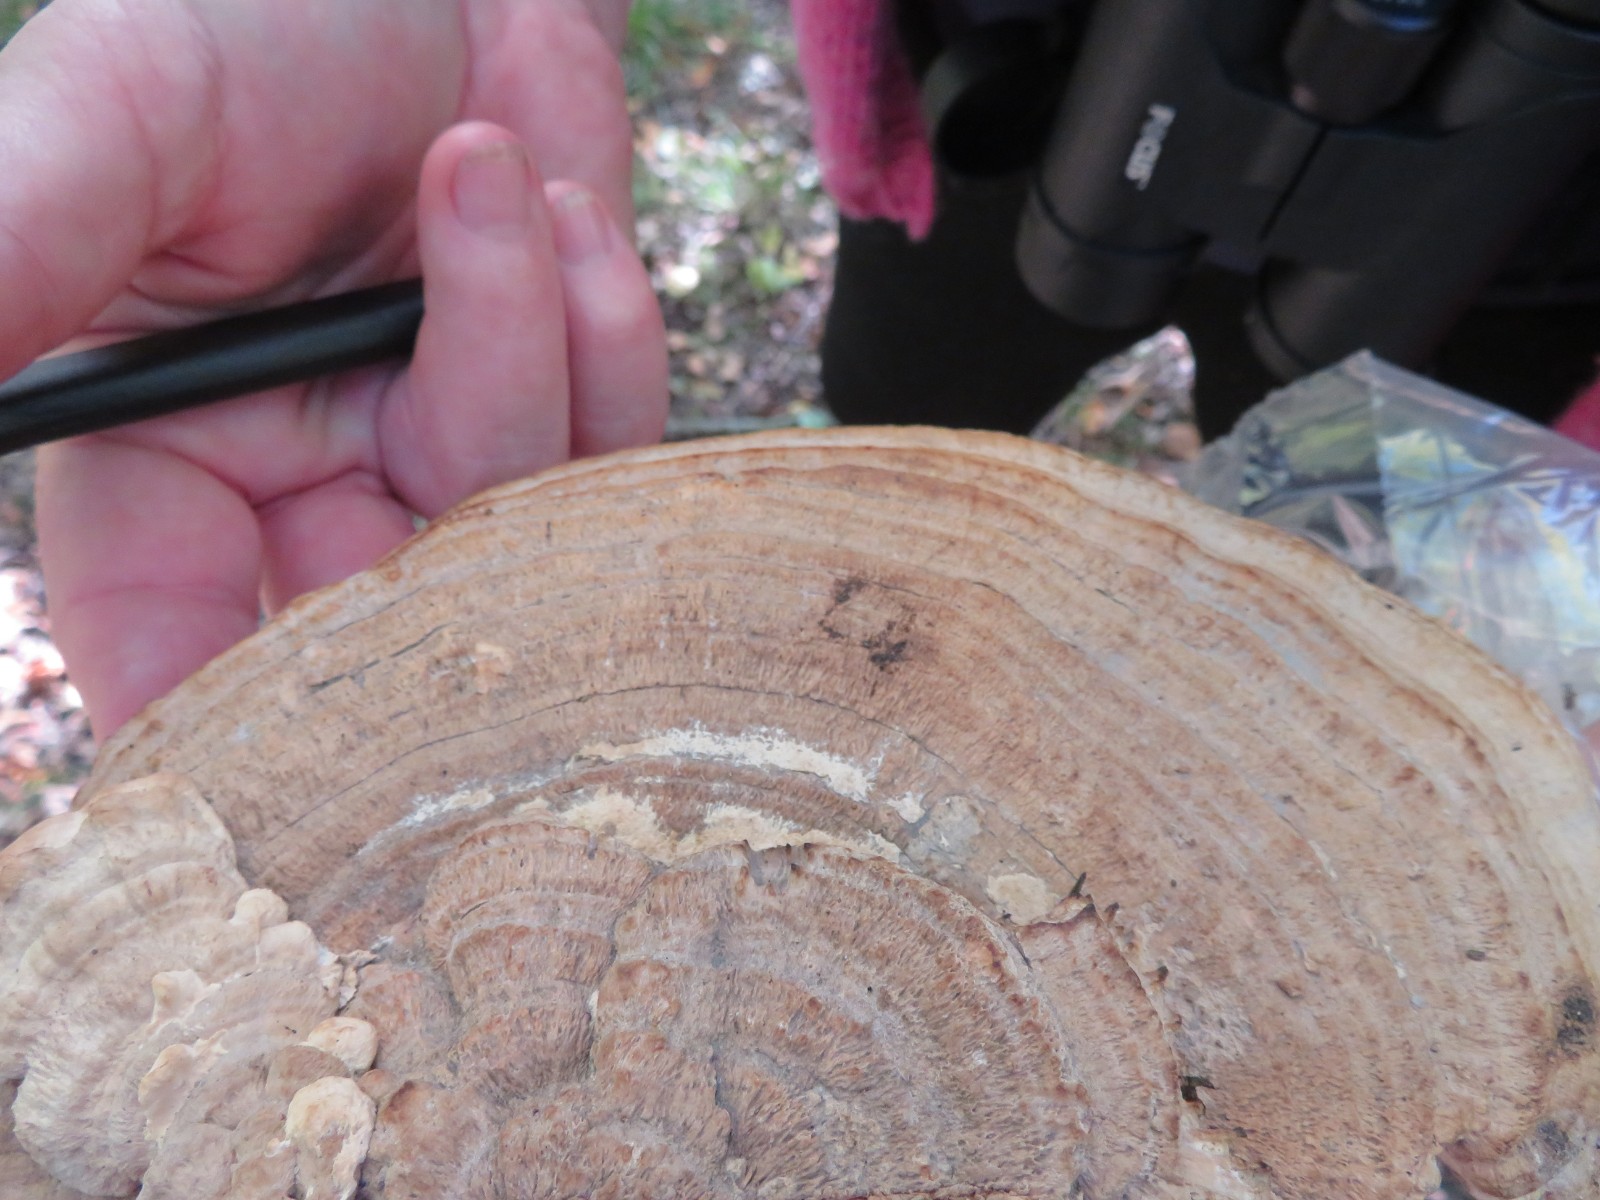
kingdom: Fungi
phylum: Basidiomycota
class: Agaricomycetes
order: Polyporales
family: Fomitopsidaceae
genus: Daedalea
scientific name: Daedalea quercina
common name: ege-labyrintsvamp
